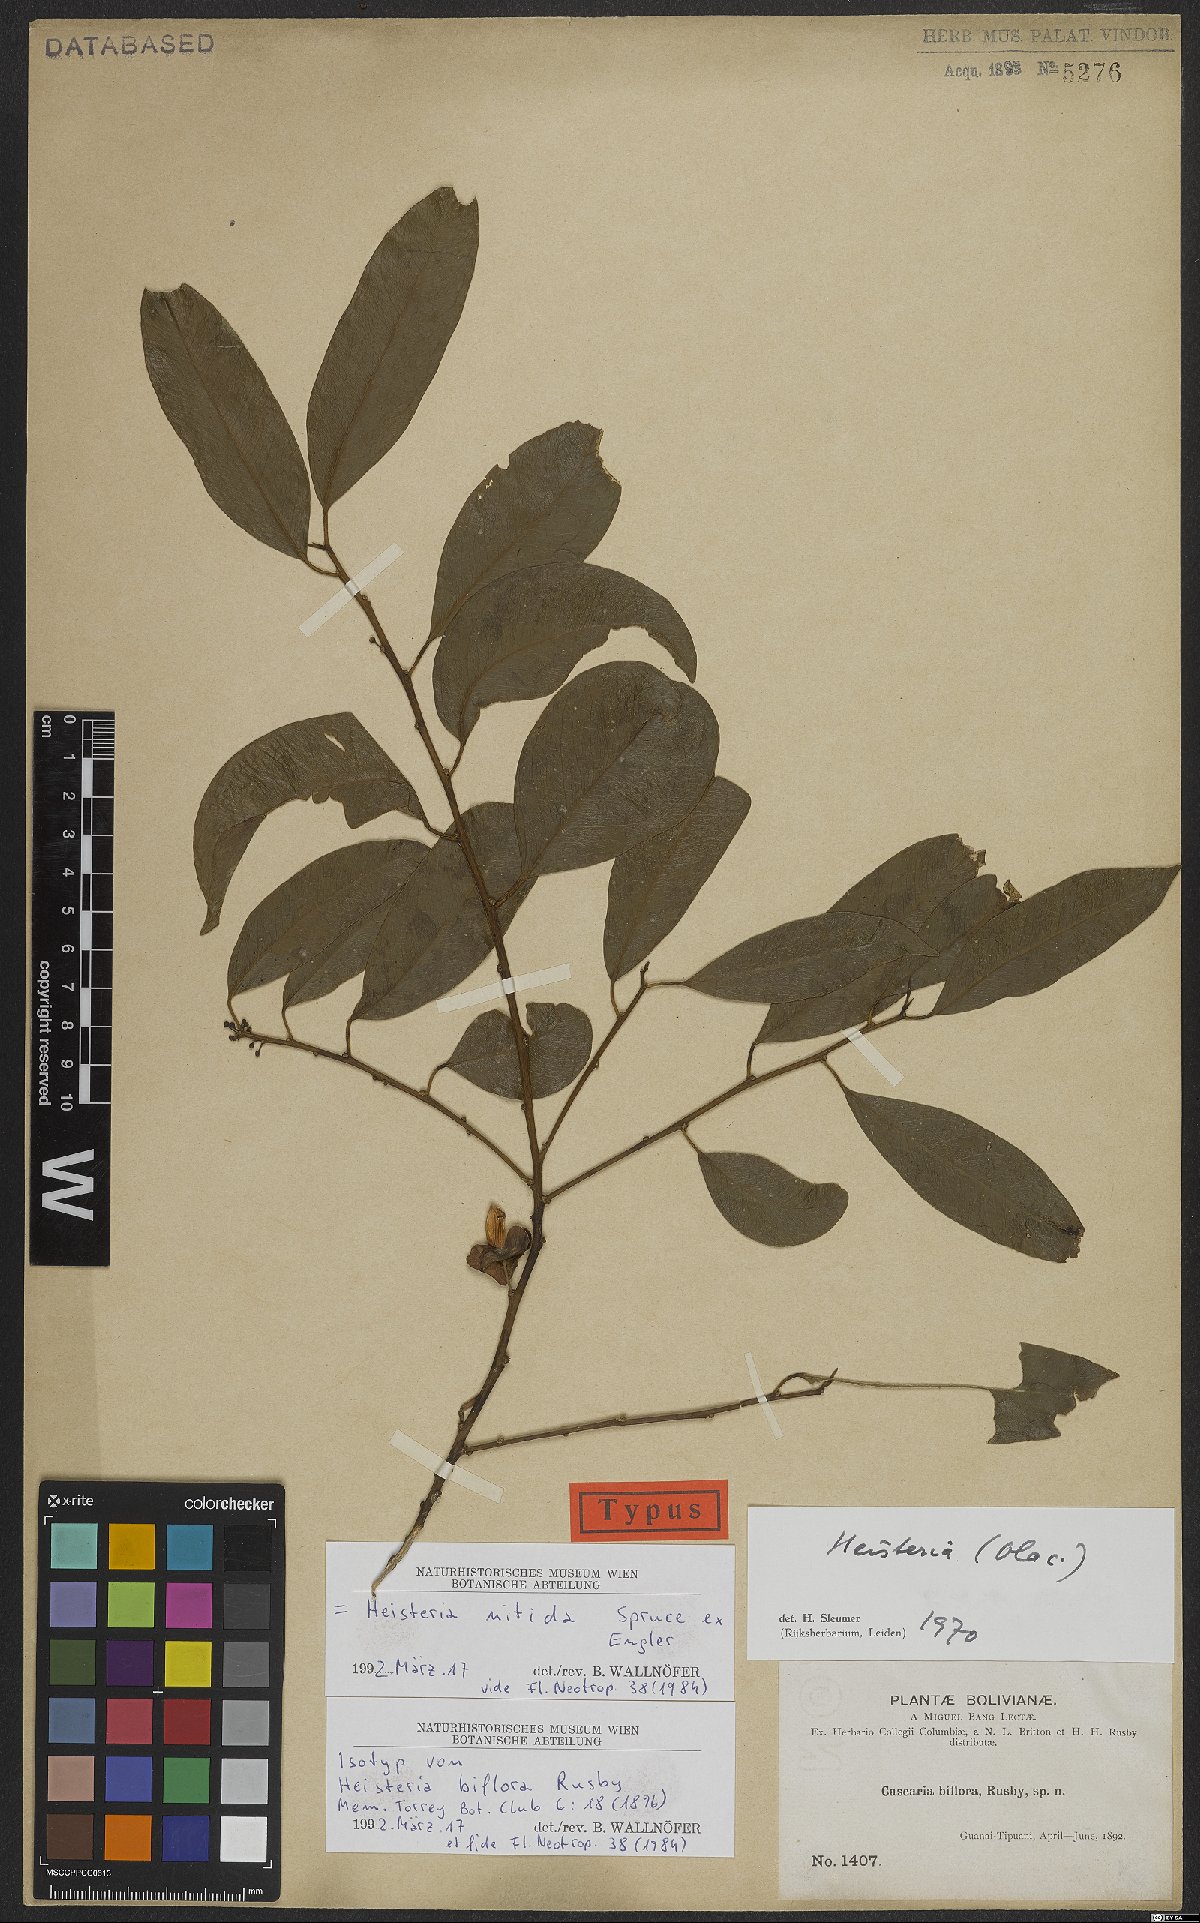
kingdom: Plantae
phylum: Tracheophyta
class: Magnoliopsida
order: Santalales
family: Erythropalaceae
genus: Heisteria
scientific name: Heisteria nitida
